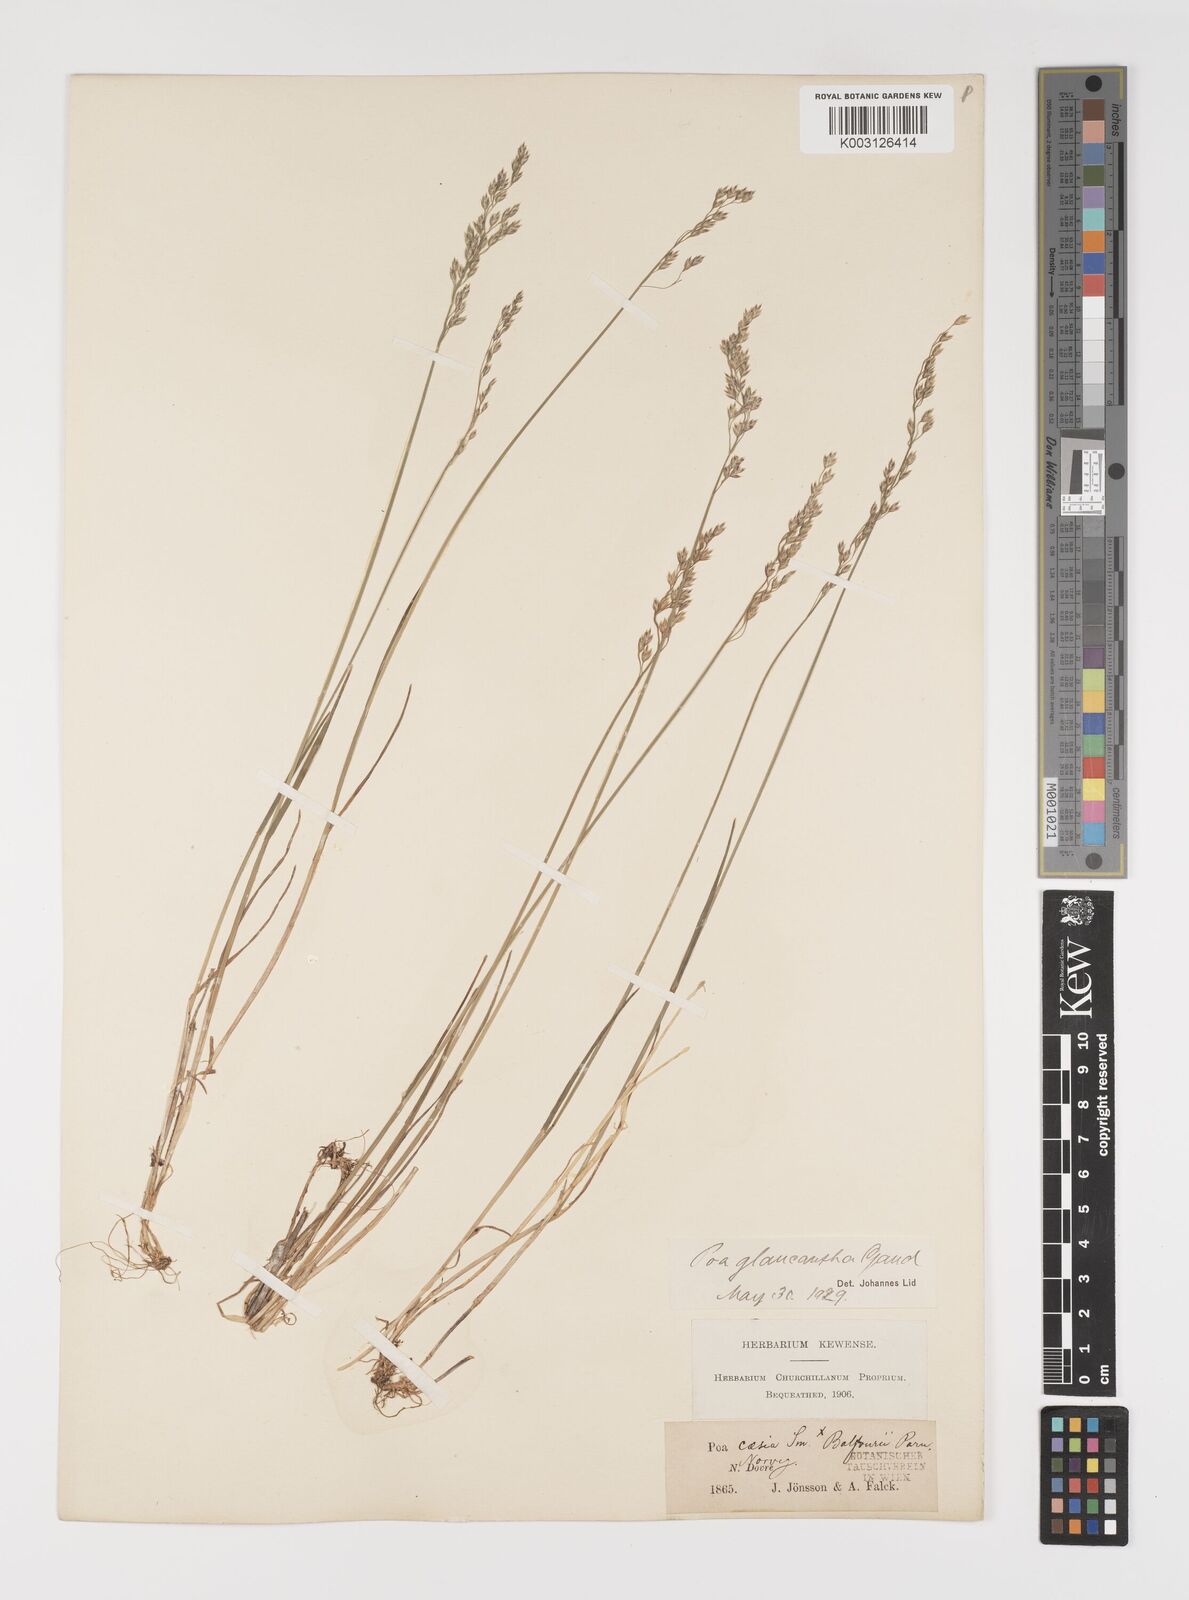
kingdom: Plantae
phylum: Tracheophyta
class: Liliopsida
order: Poales
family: Poaceae
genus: Poa
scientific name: Poa nemoralis
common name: Wood bluegrass
